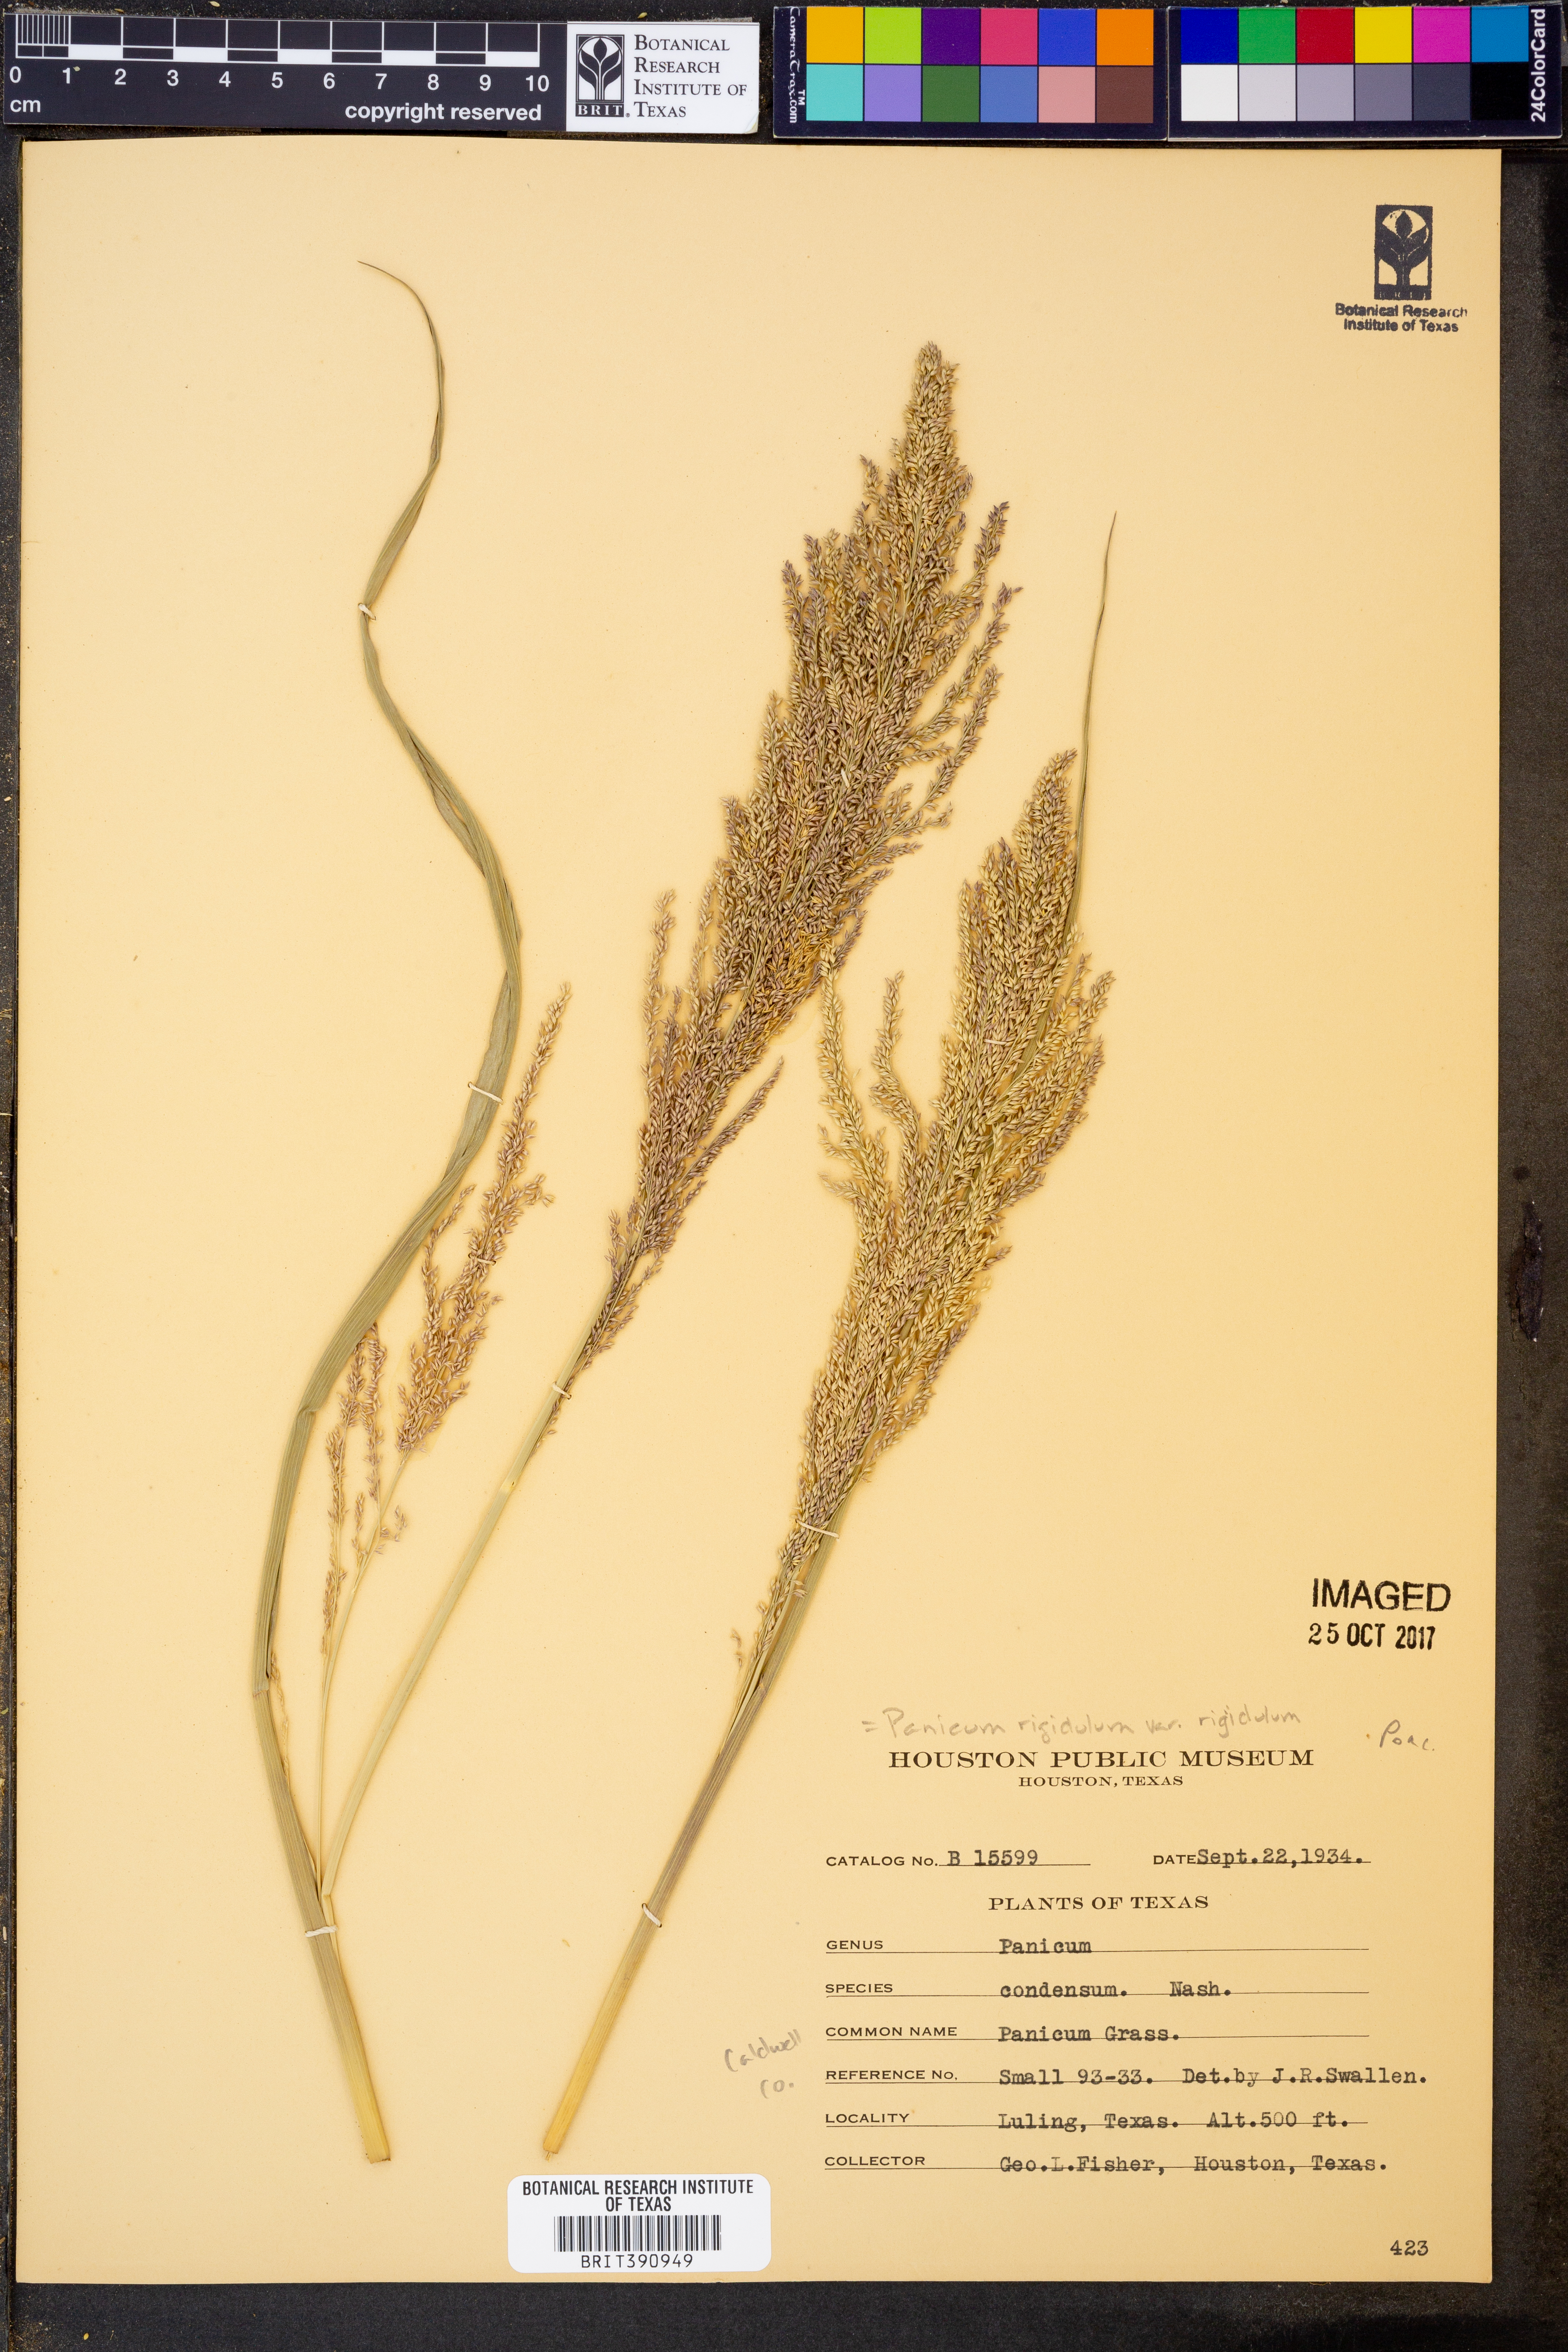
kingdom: Plantae
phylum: Tracheophyta
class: Liliopsida
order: Poales
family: Poaceae
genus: Coleataenia
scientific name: Coleataenia rigidula
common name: Redtop panicgrass
